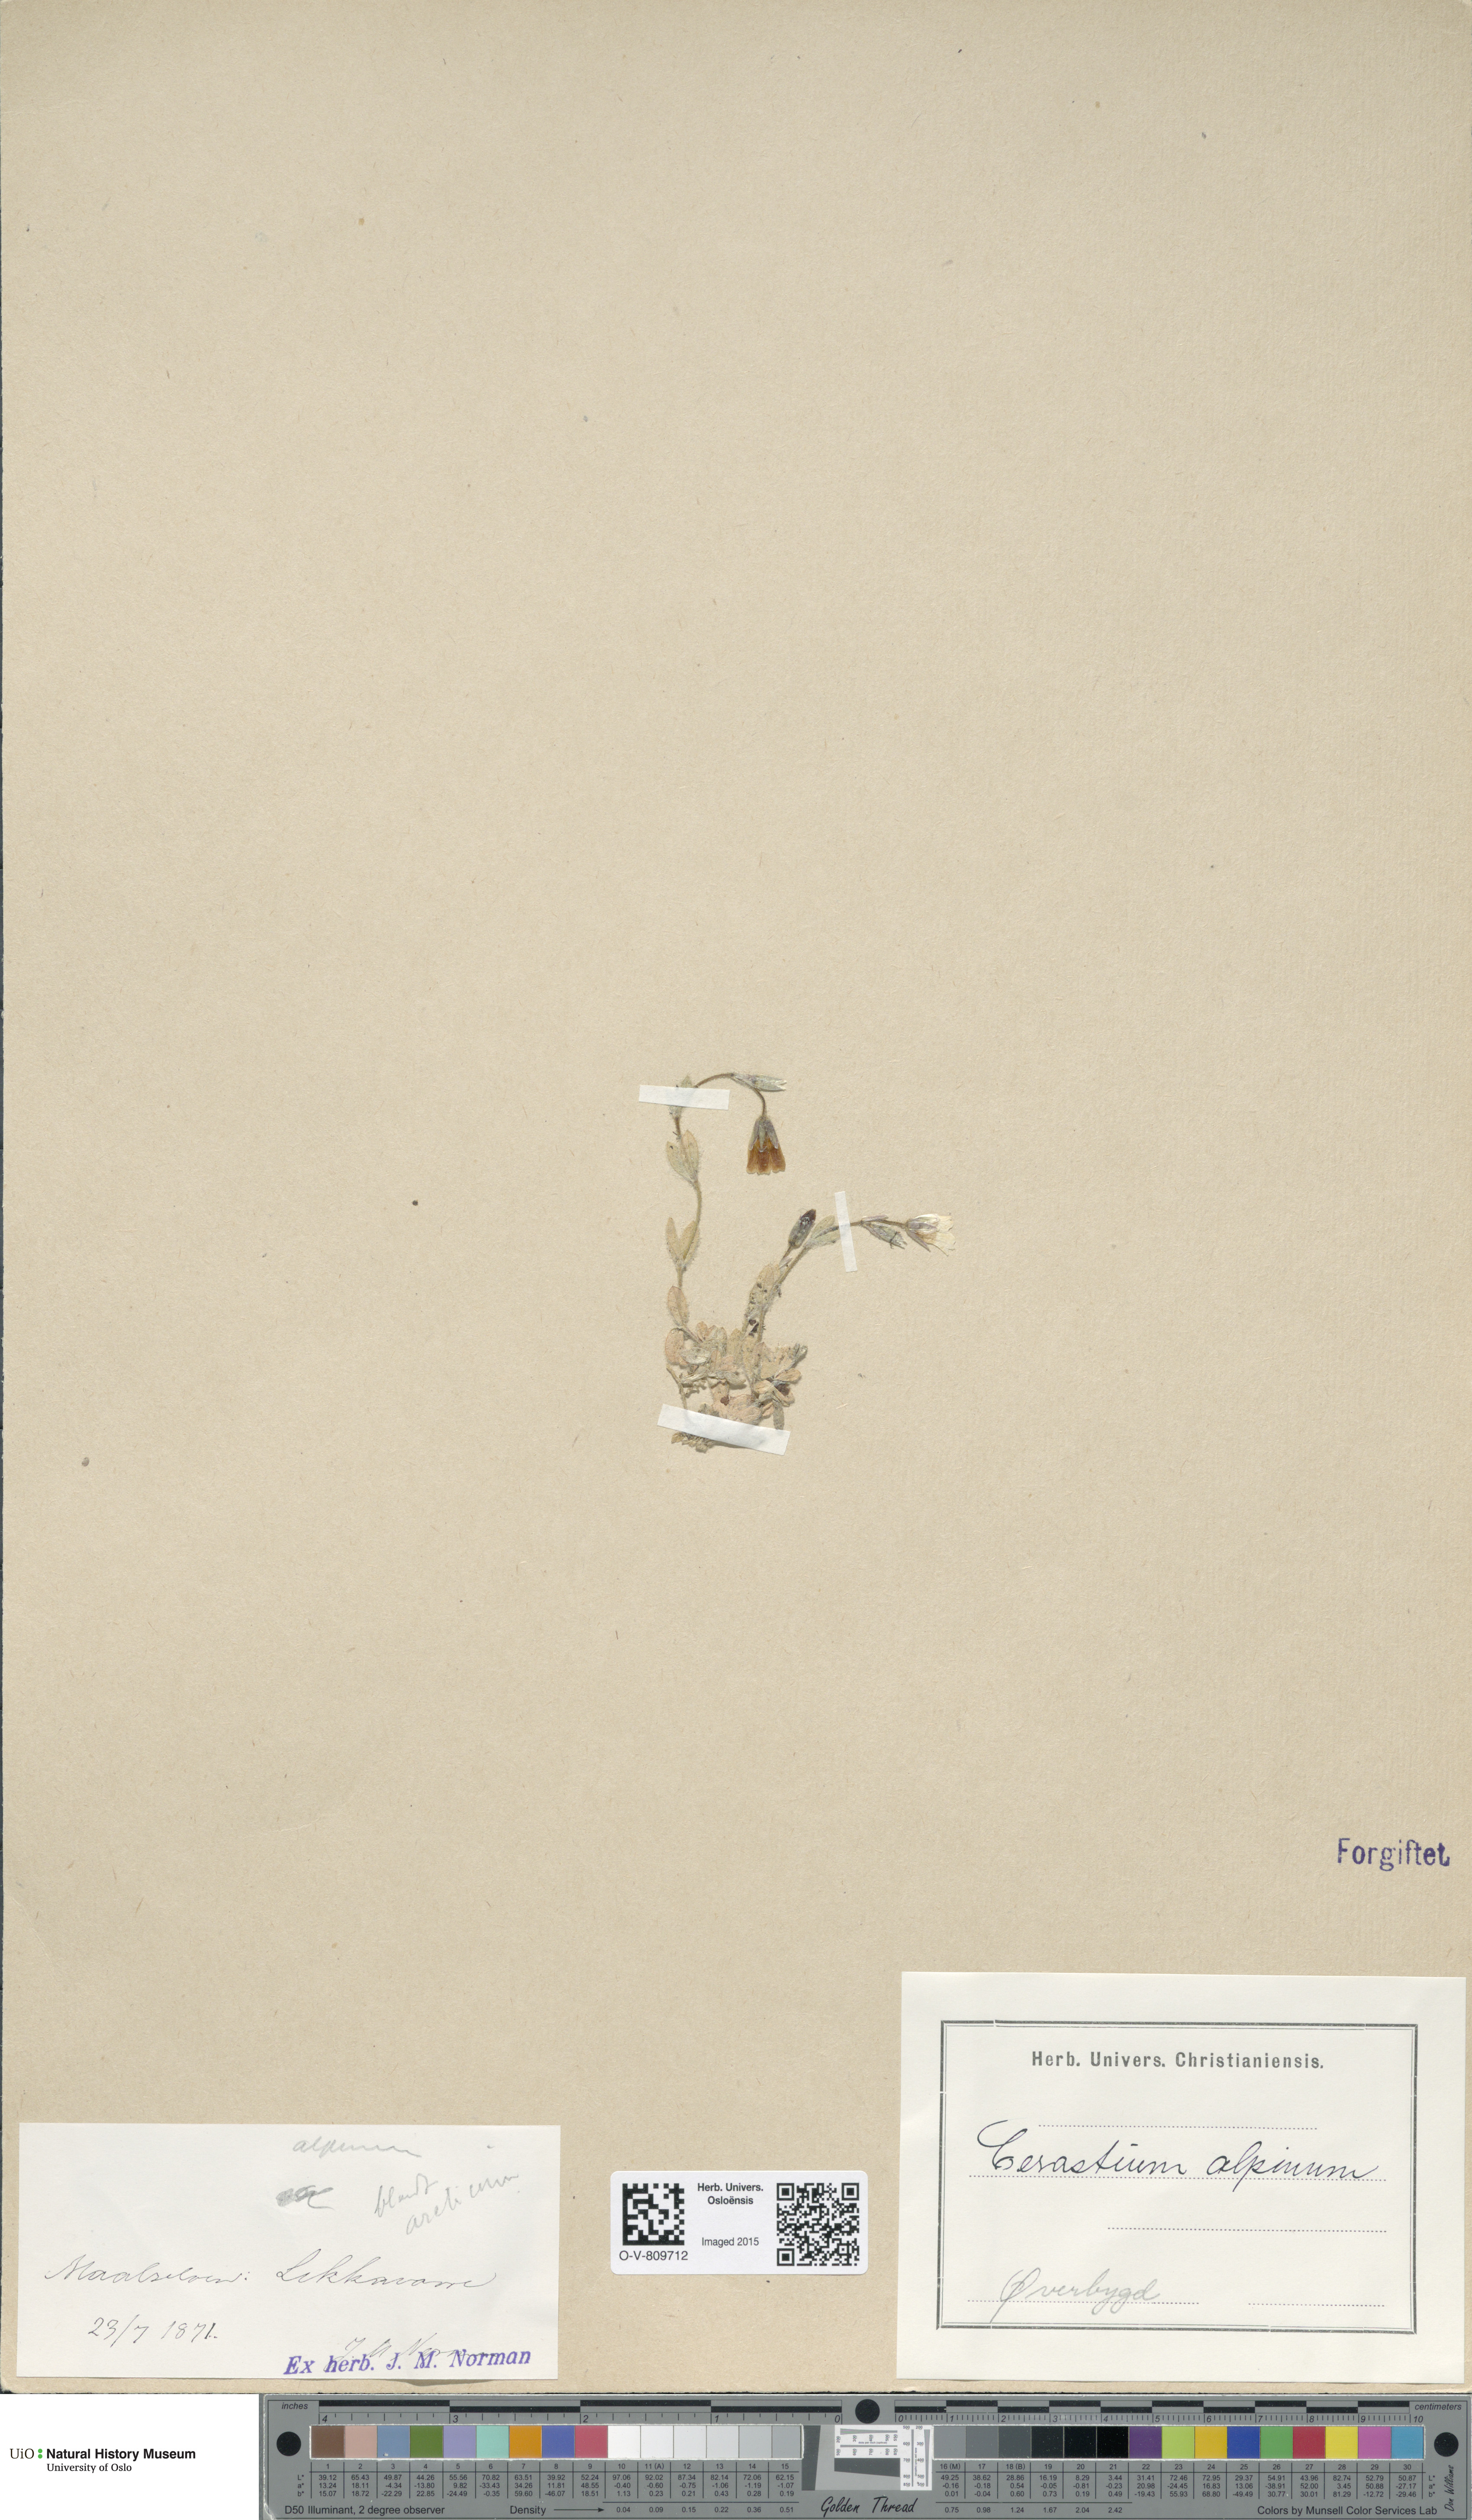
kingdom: Plantae
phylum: Tracheophyta
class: Magnoliopsida
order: Caryophyllales
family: Caryophyllaceae
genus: Cerastium
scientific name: Cerastium alpinum
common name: Alpine mouse-ear
